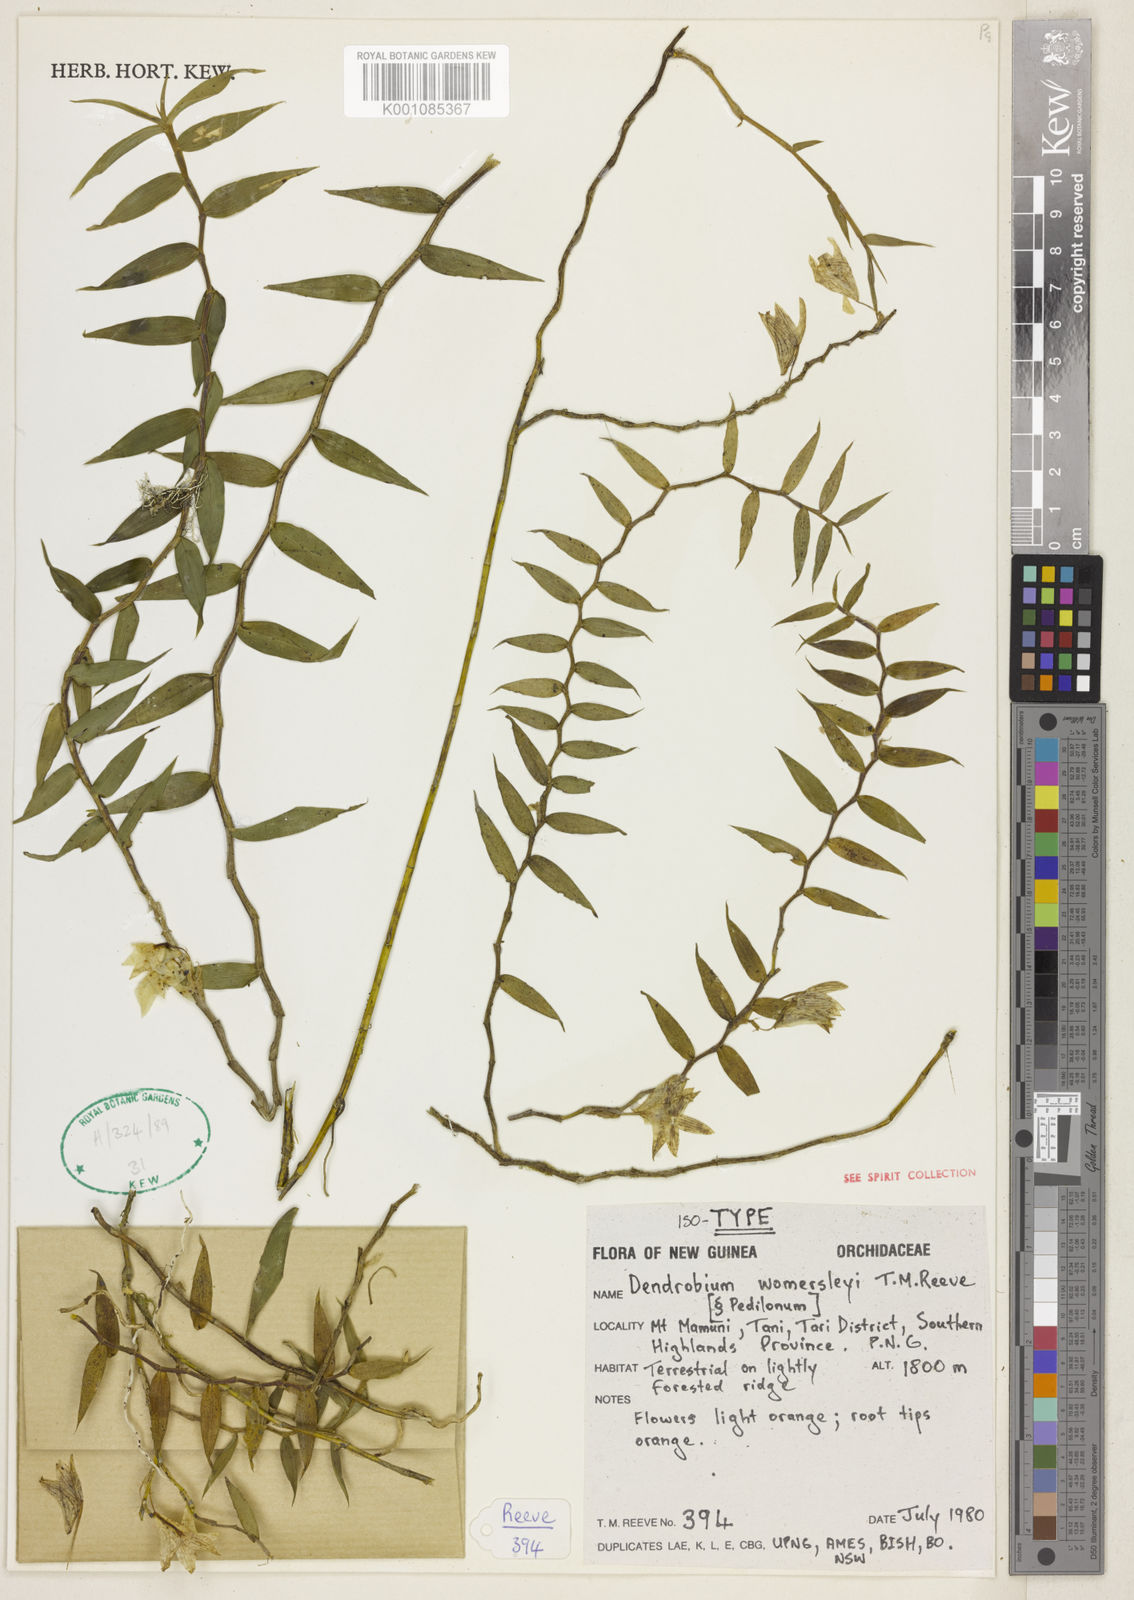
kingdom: Plantae
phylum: Tracheophyta
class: Liliopsida
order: Asparagales
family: Orchidaceae
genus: Dendrobium
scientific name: Dendrobium
